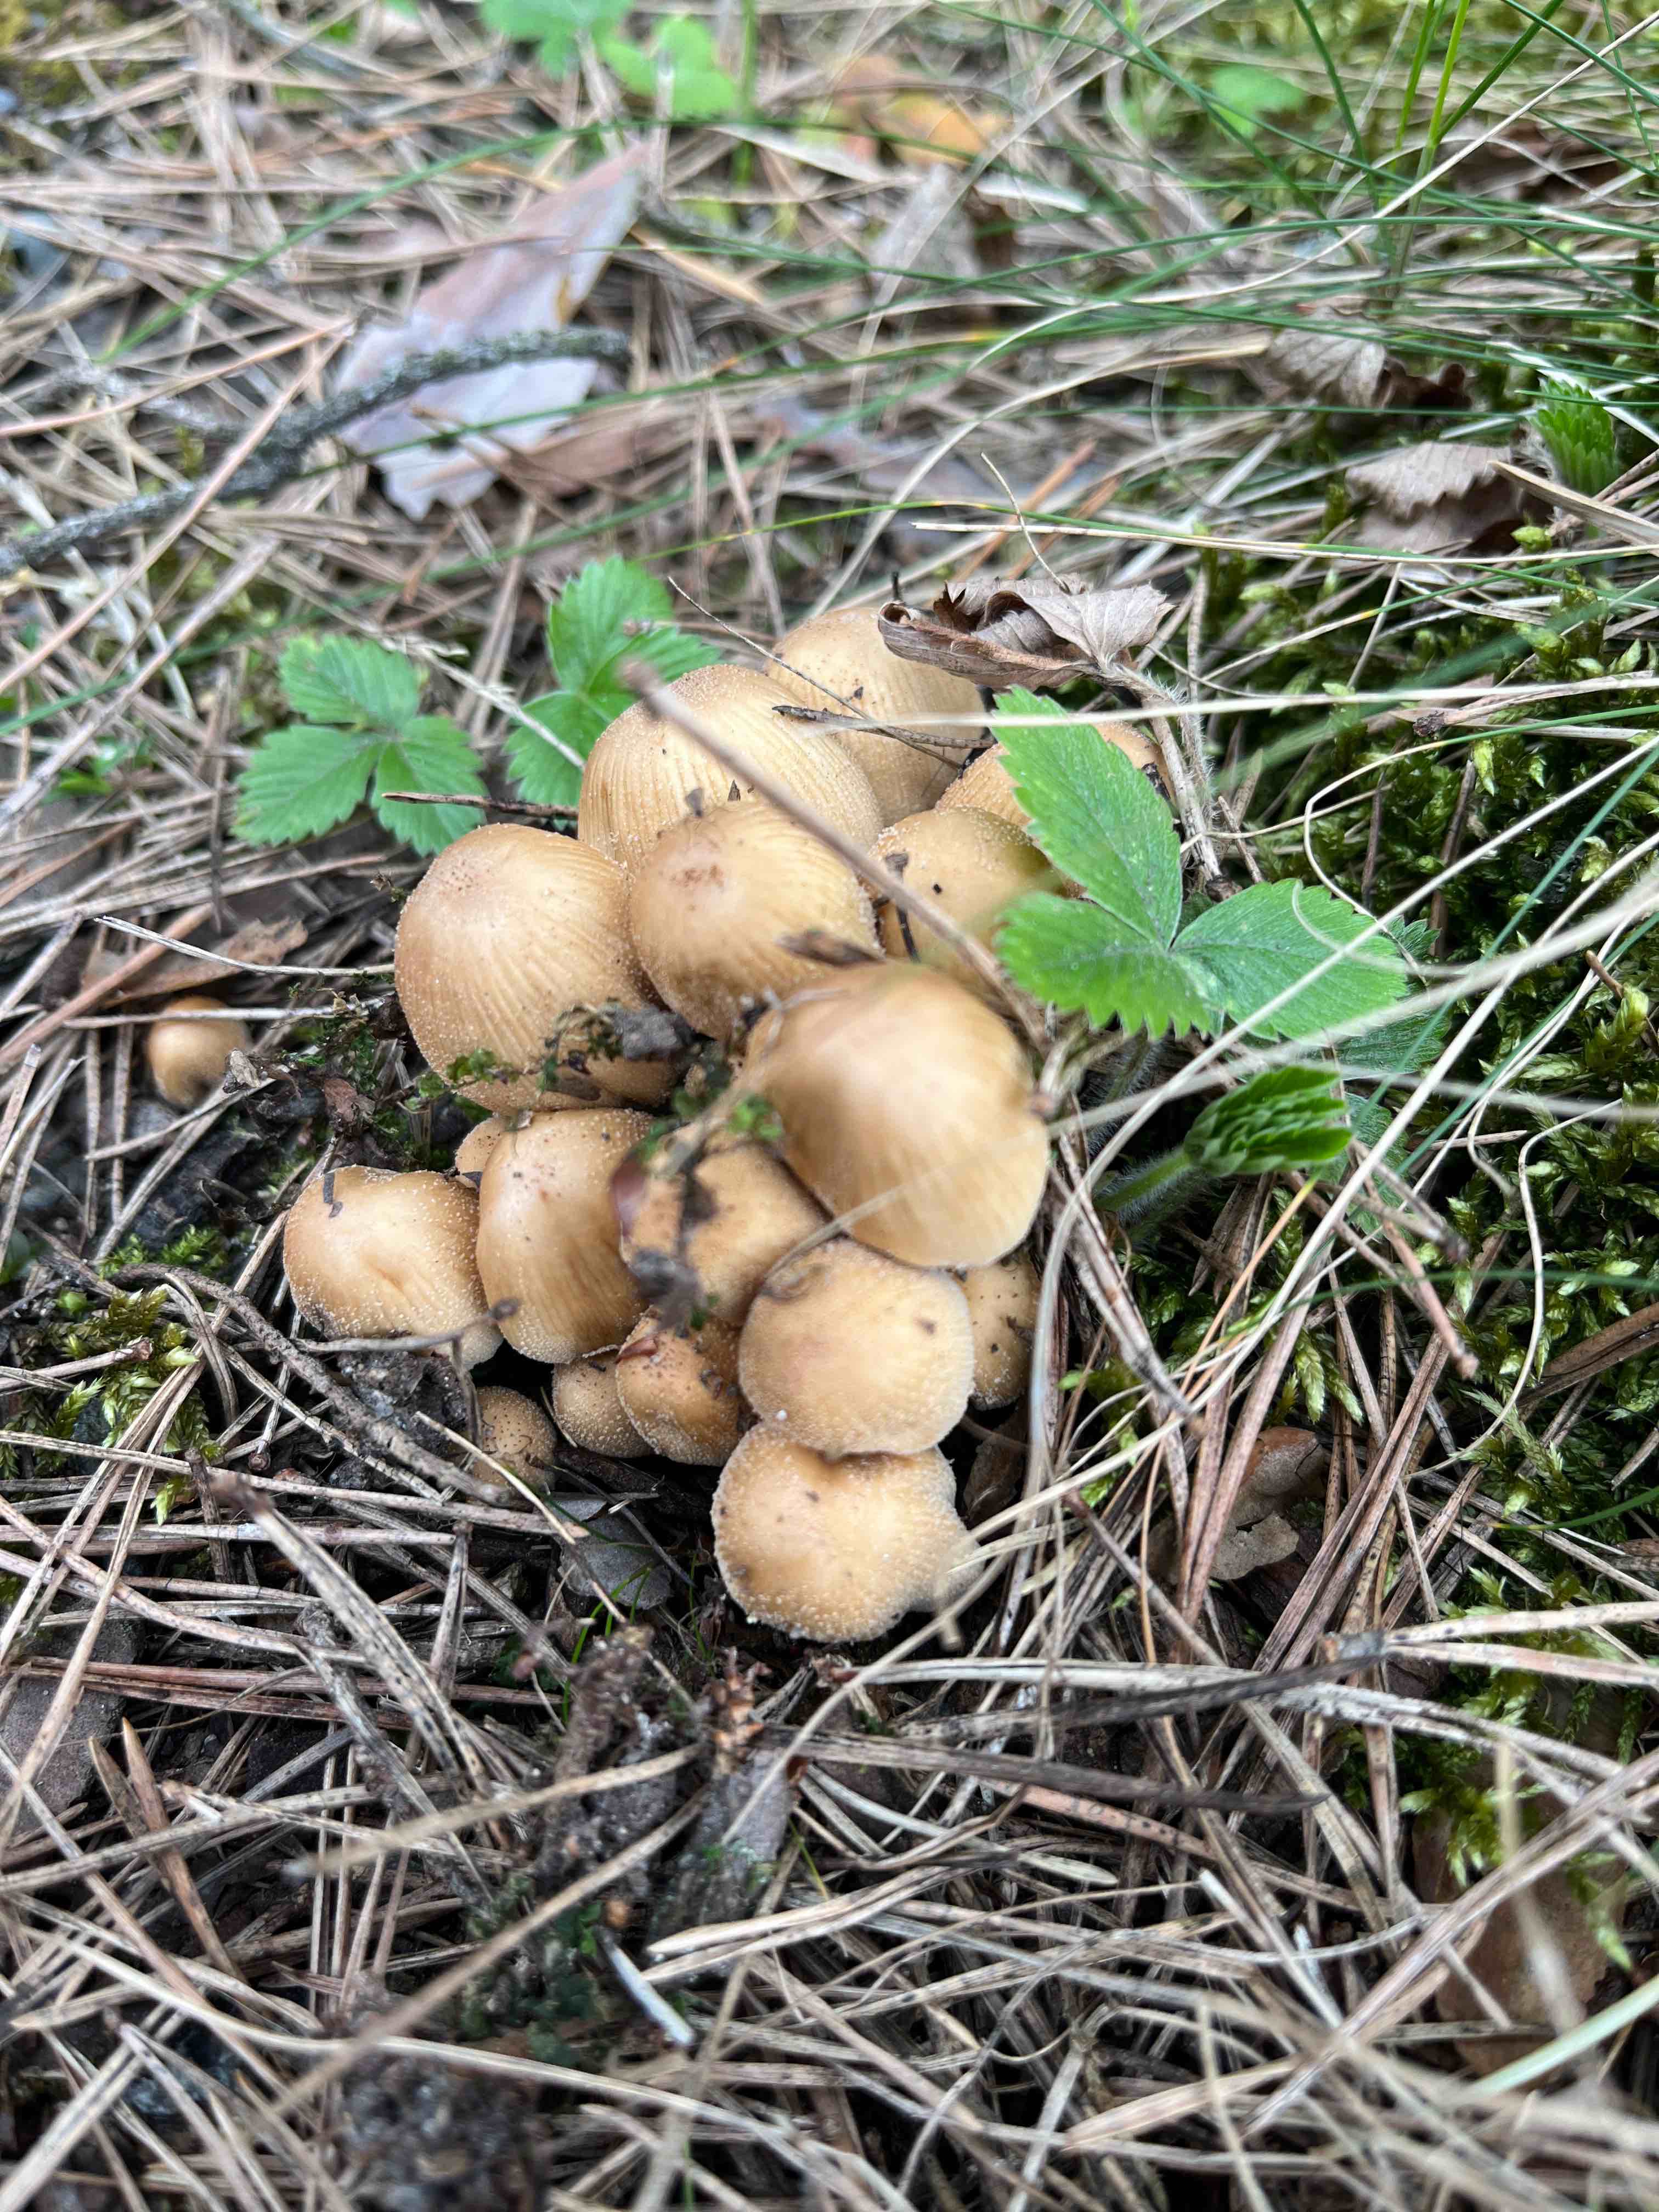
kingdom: Fungi
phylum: Basidiomycota
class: Agaricomycetes
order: Agaricales
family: Psathyrellaceae
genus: Coprinellus
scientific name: Coprinellus
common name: blækhat
